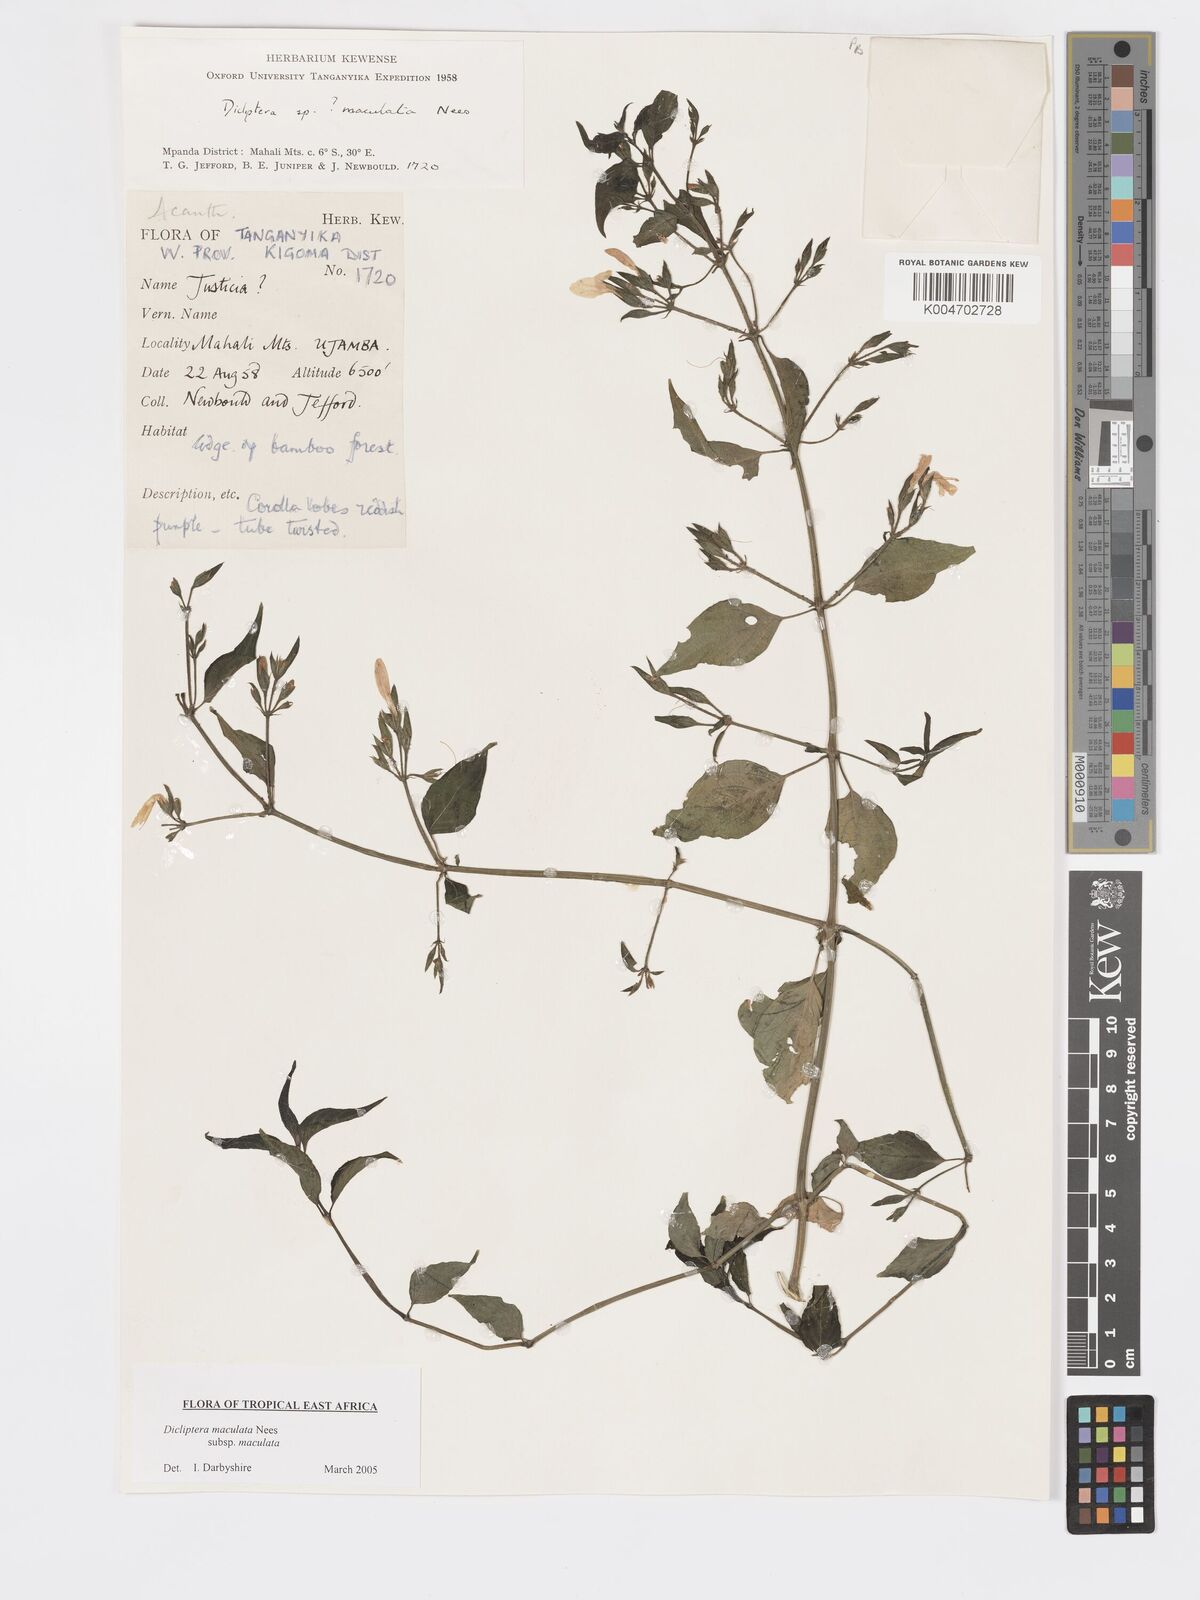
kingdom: Plantae
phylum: Tracheophyta
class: Magnoliopsida
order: Lamiales
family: Acanthaceae
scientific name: Acanthaceae
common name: Acanthaceae
